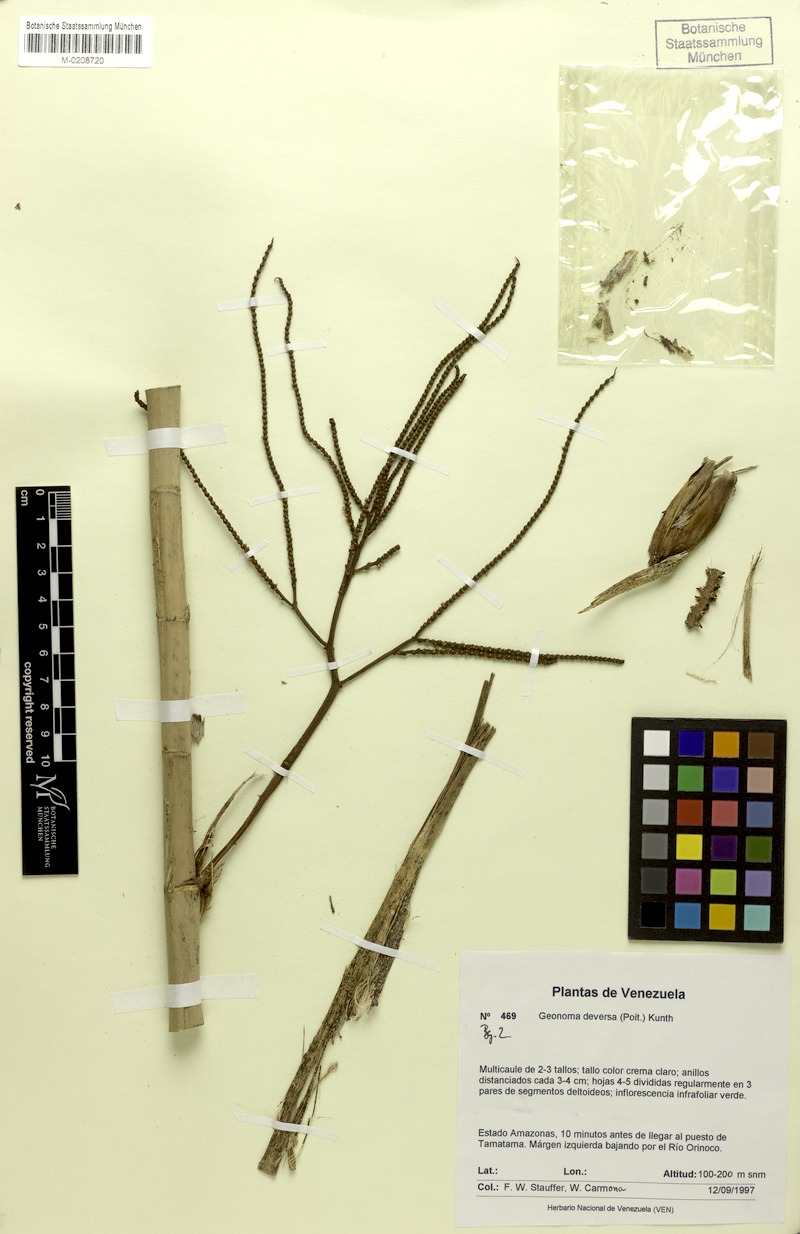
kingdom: Plantae
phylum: Tracheophyta
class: Liliopsida
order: Arecales
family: Arecaceae
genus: Geonoma
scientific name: Geonoma deversa
